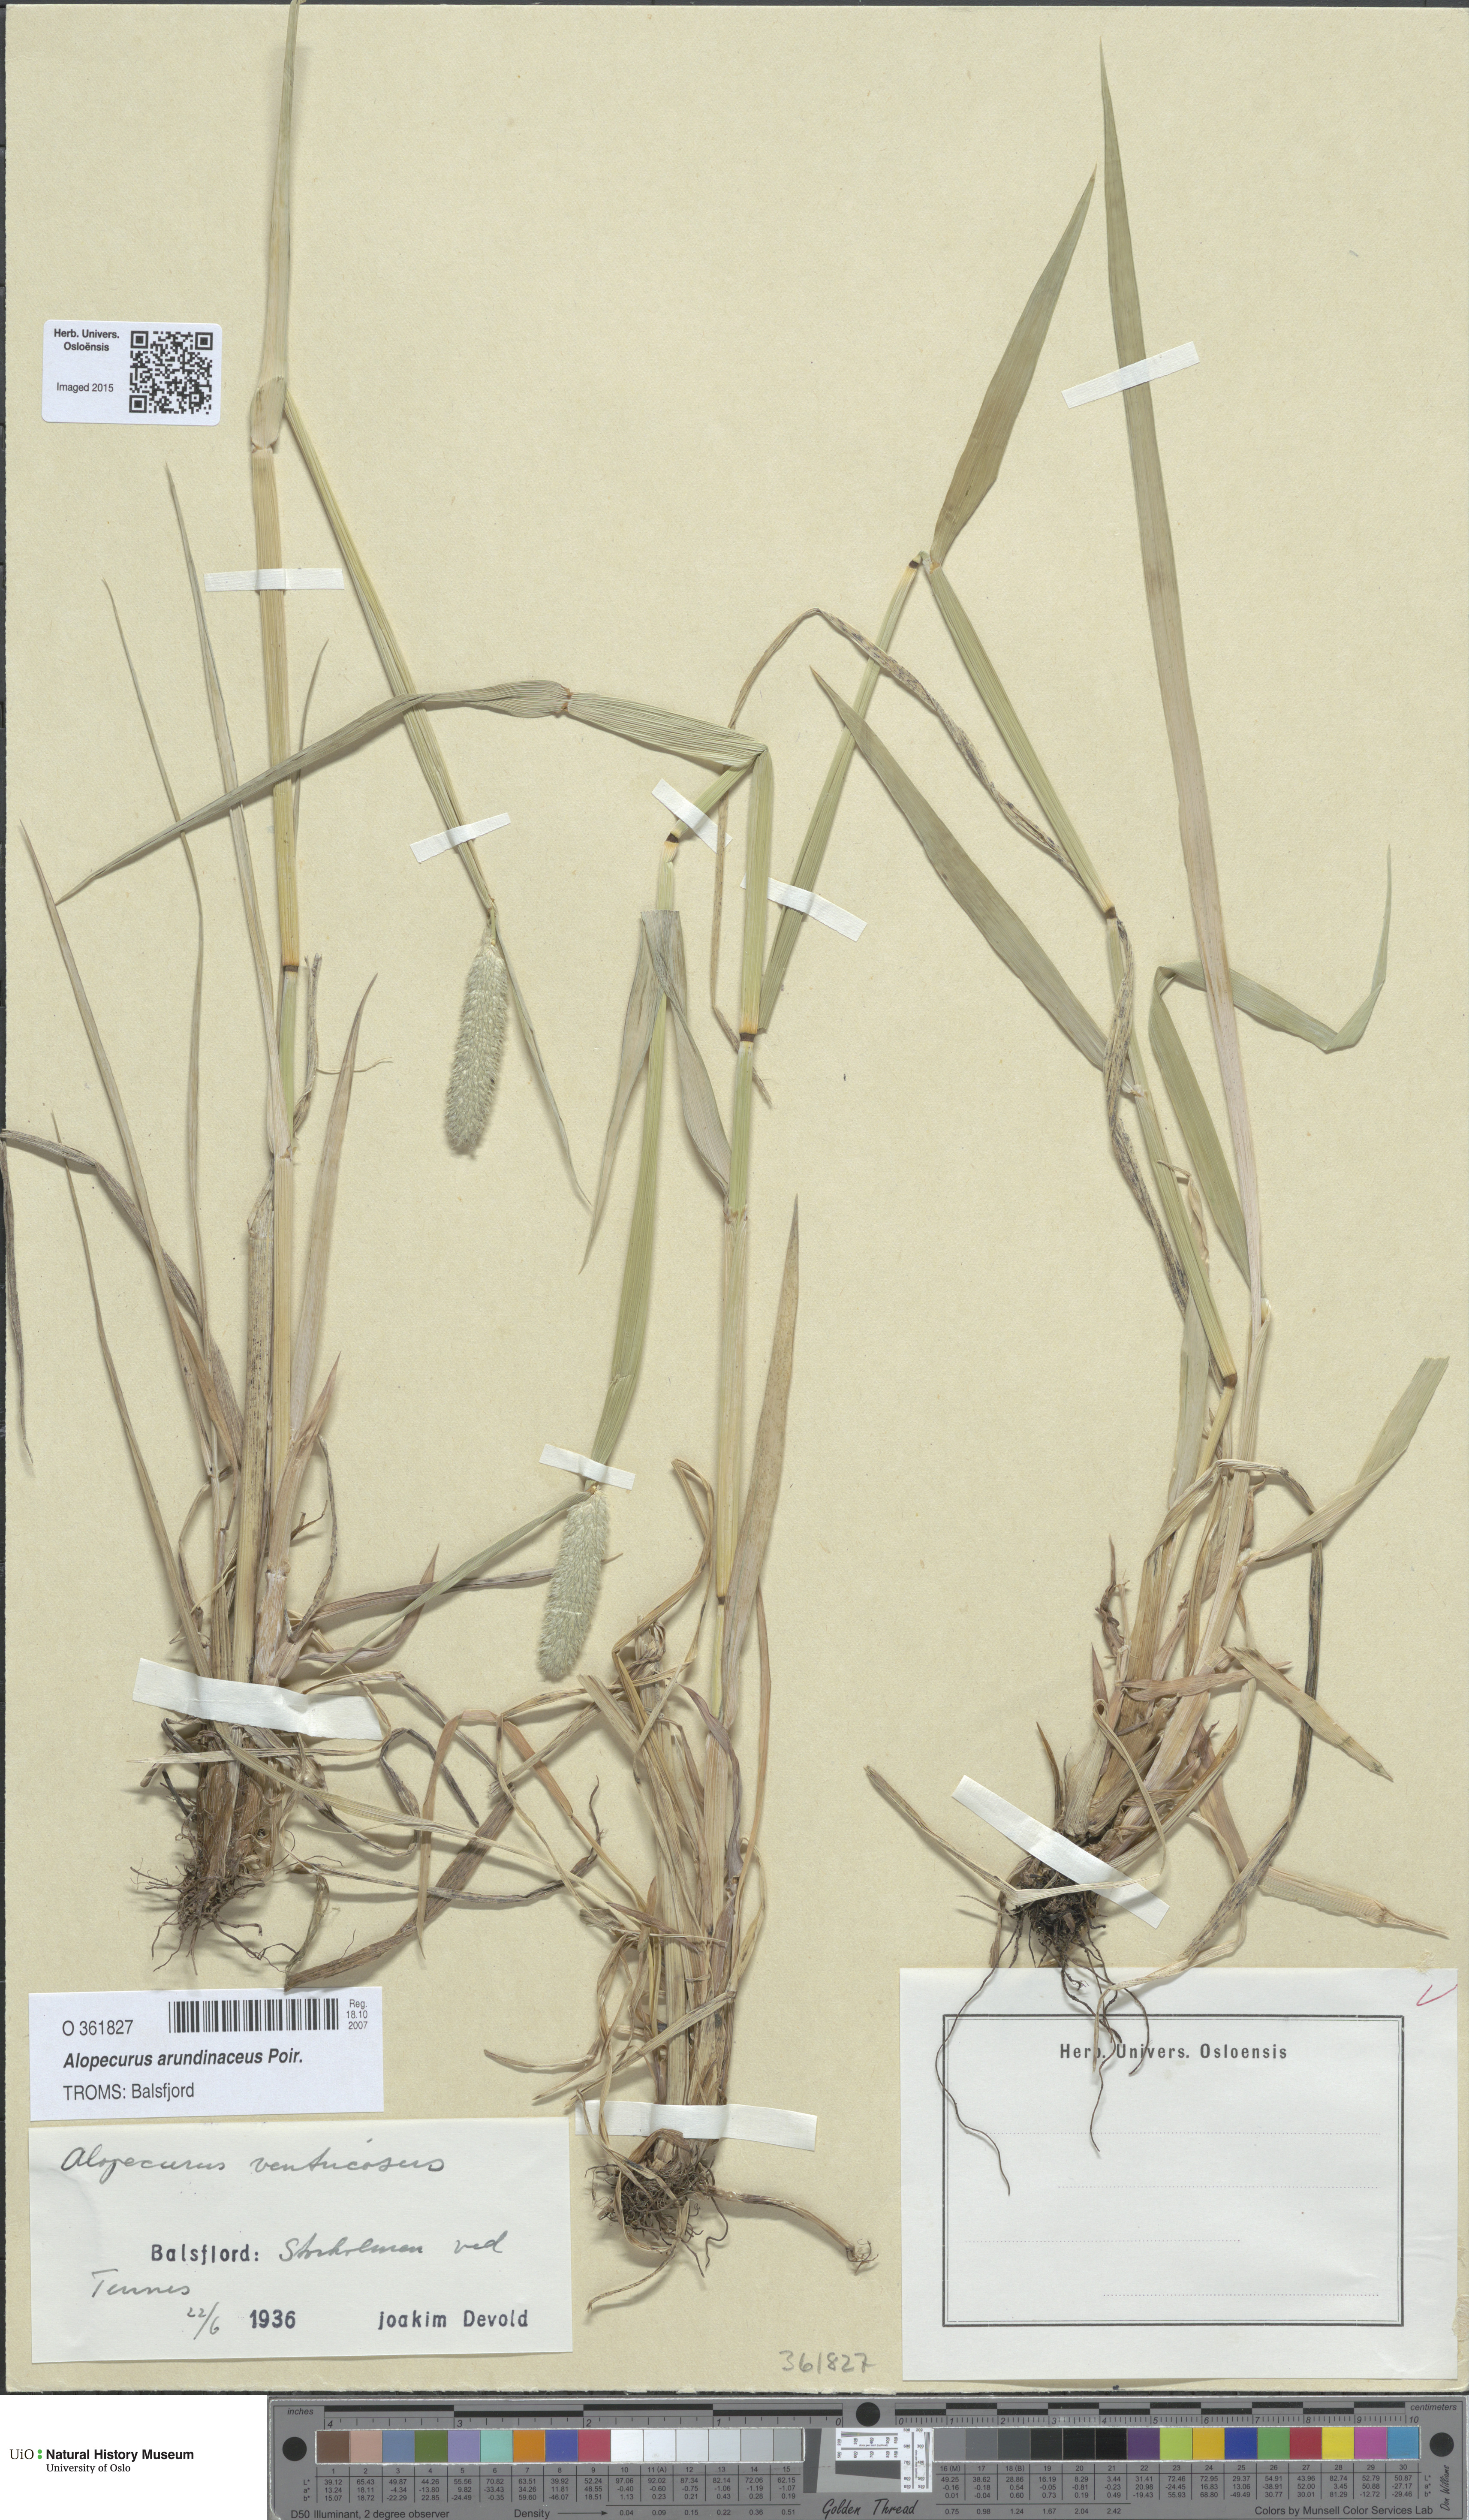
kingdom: Plantae
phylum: Tracheophyta
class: Liliopsida
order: Poales
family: Poaceae
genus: Alopecurus
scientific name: Alopecurus arundinaceus
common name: Creeping meadow foxtail
